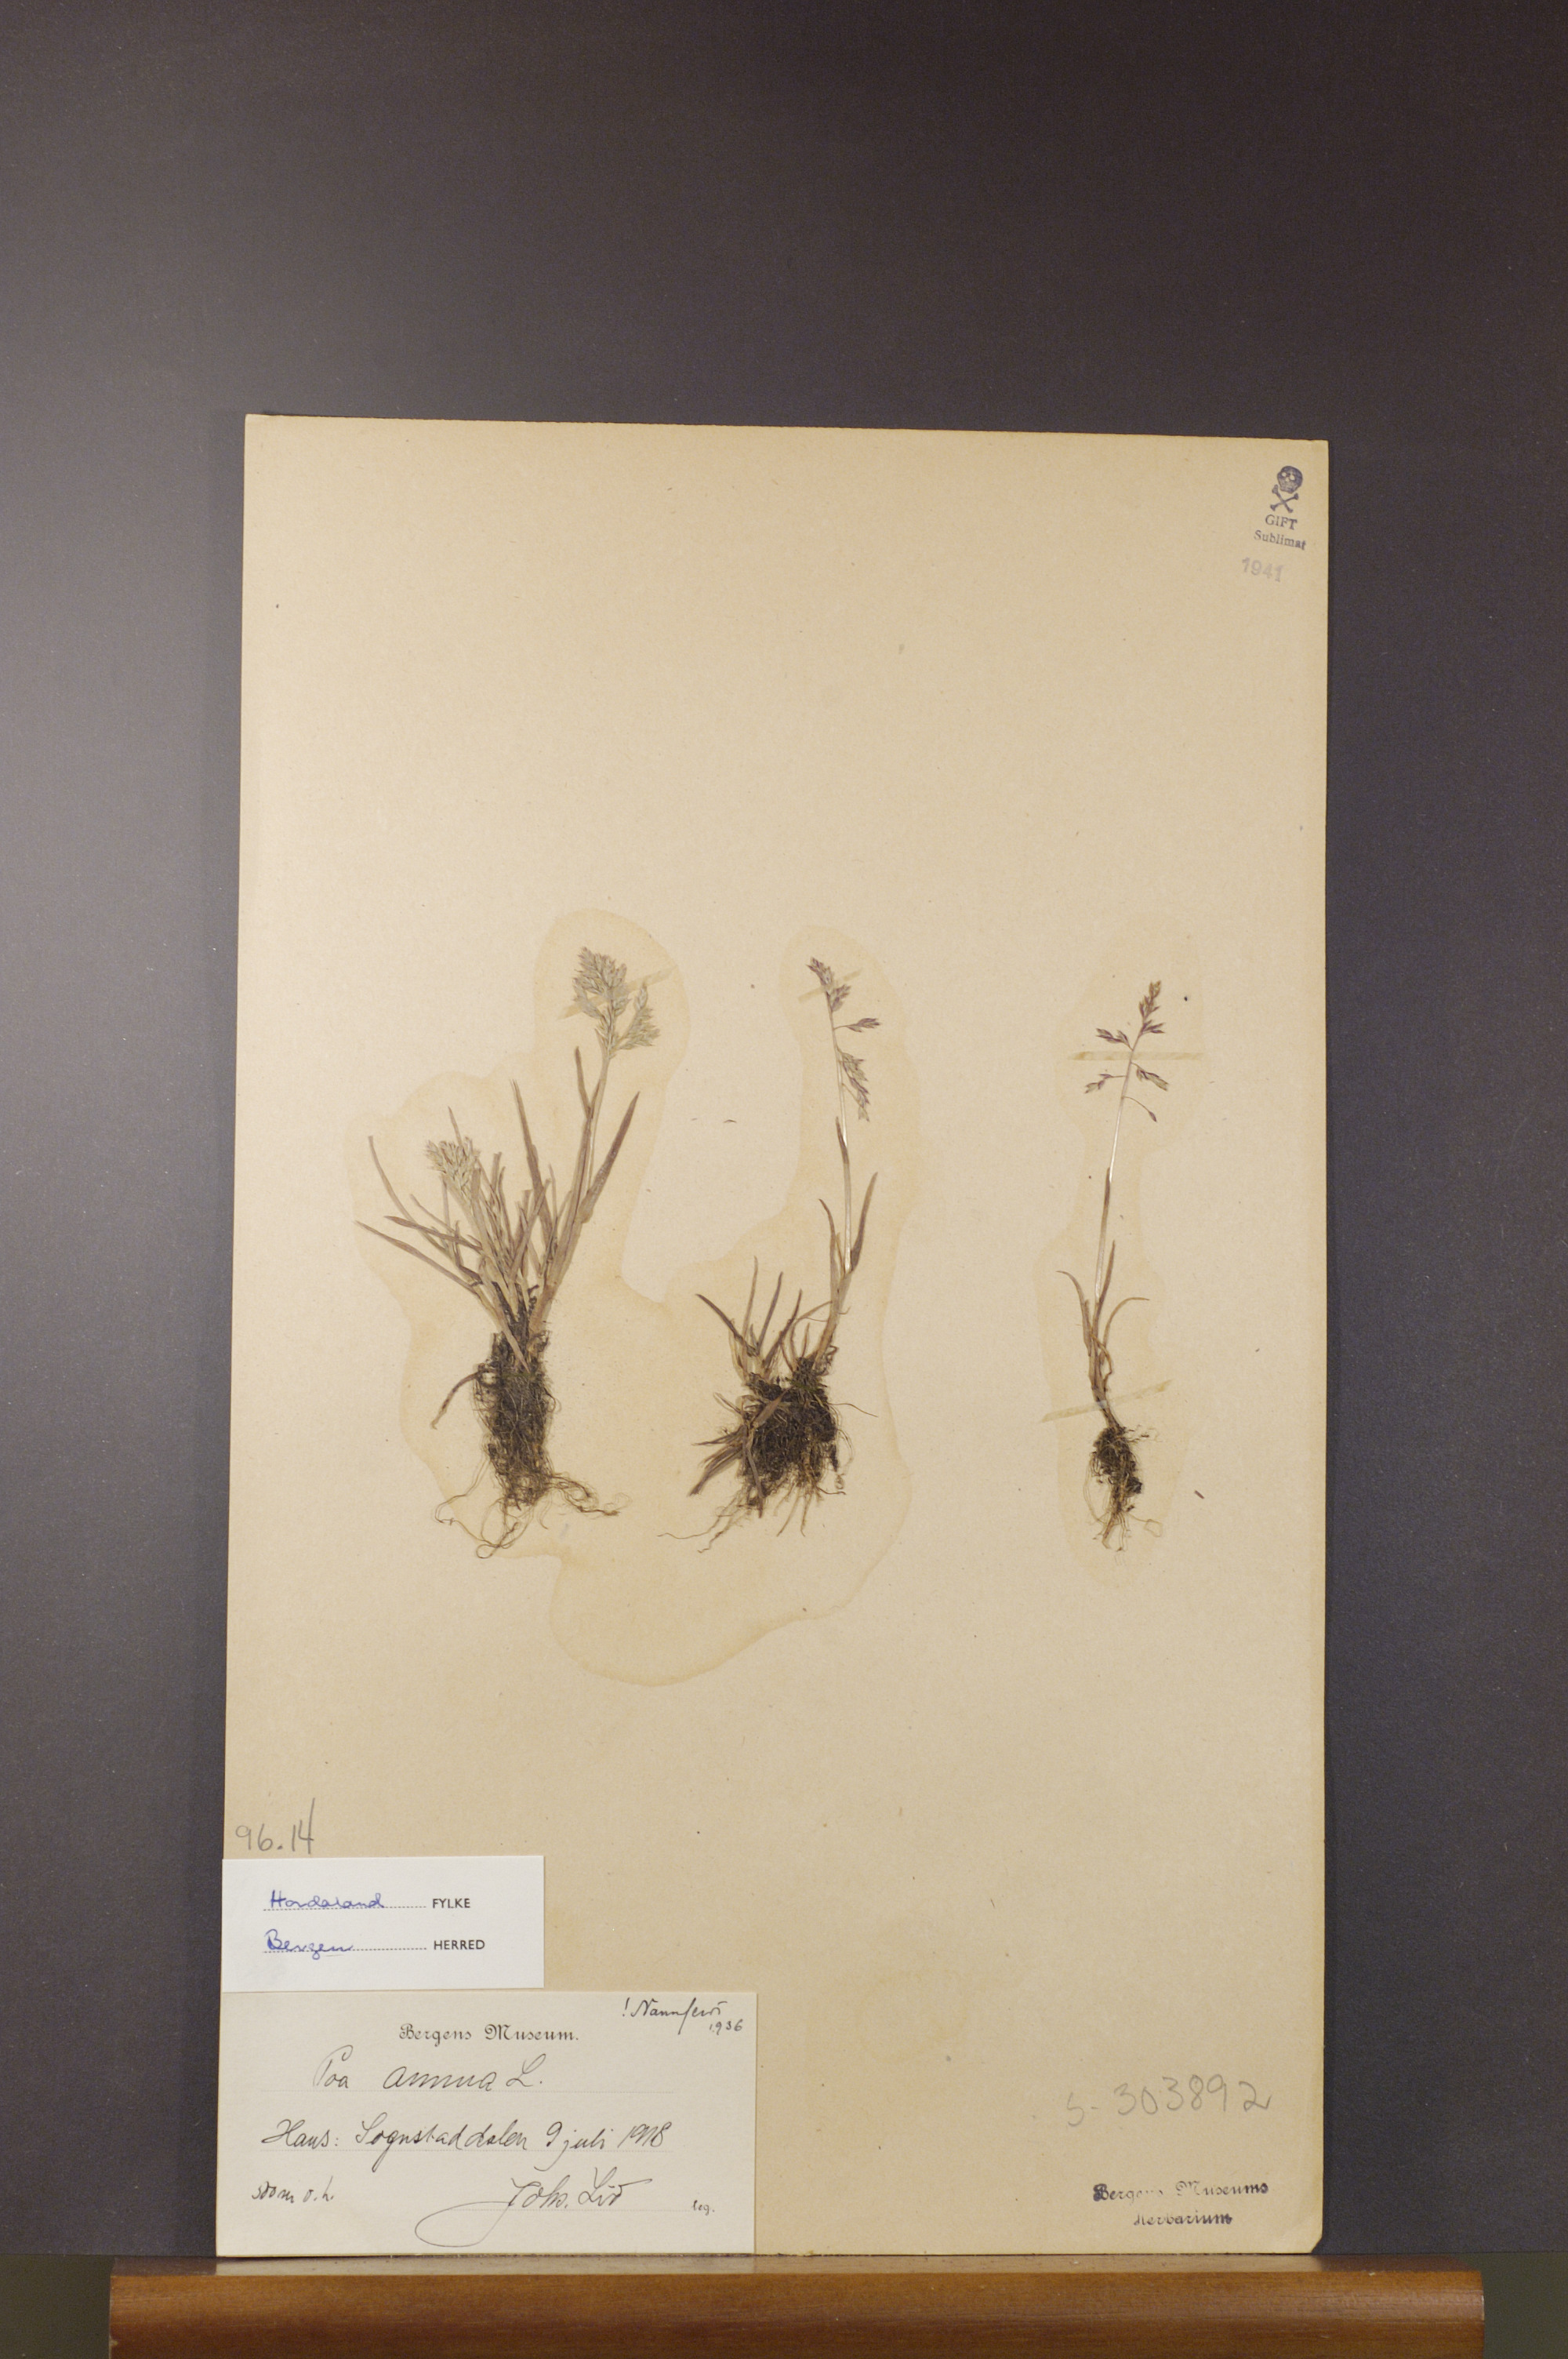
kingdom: Plantae
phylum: Tracheophyta
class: Liliopsida
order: Poales
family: Poaceae
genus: Poa
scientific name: Poa annua
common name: Annual bluegrass
